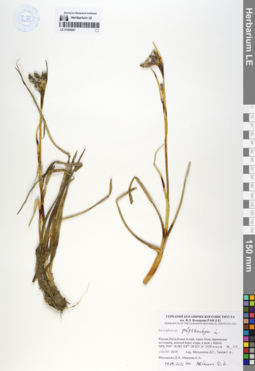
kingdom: Plantae
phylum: Tracheophyta
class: Liliopsida
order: Poales
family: Cyperaceae
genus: Eriophorum
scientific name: Eriophorum angustifolium
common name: Common cottongrass
